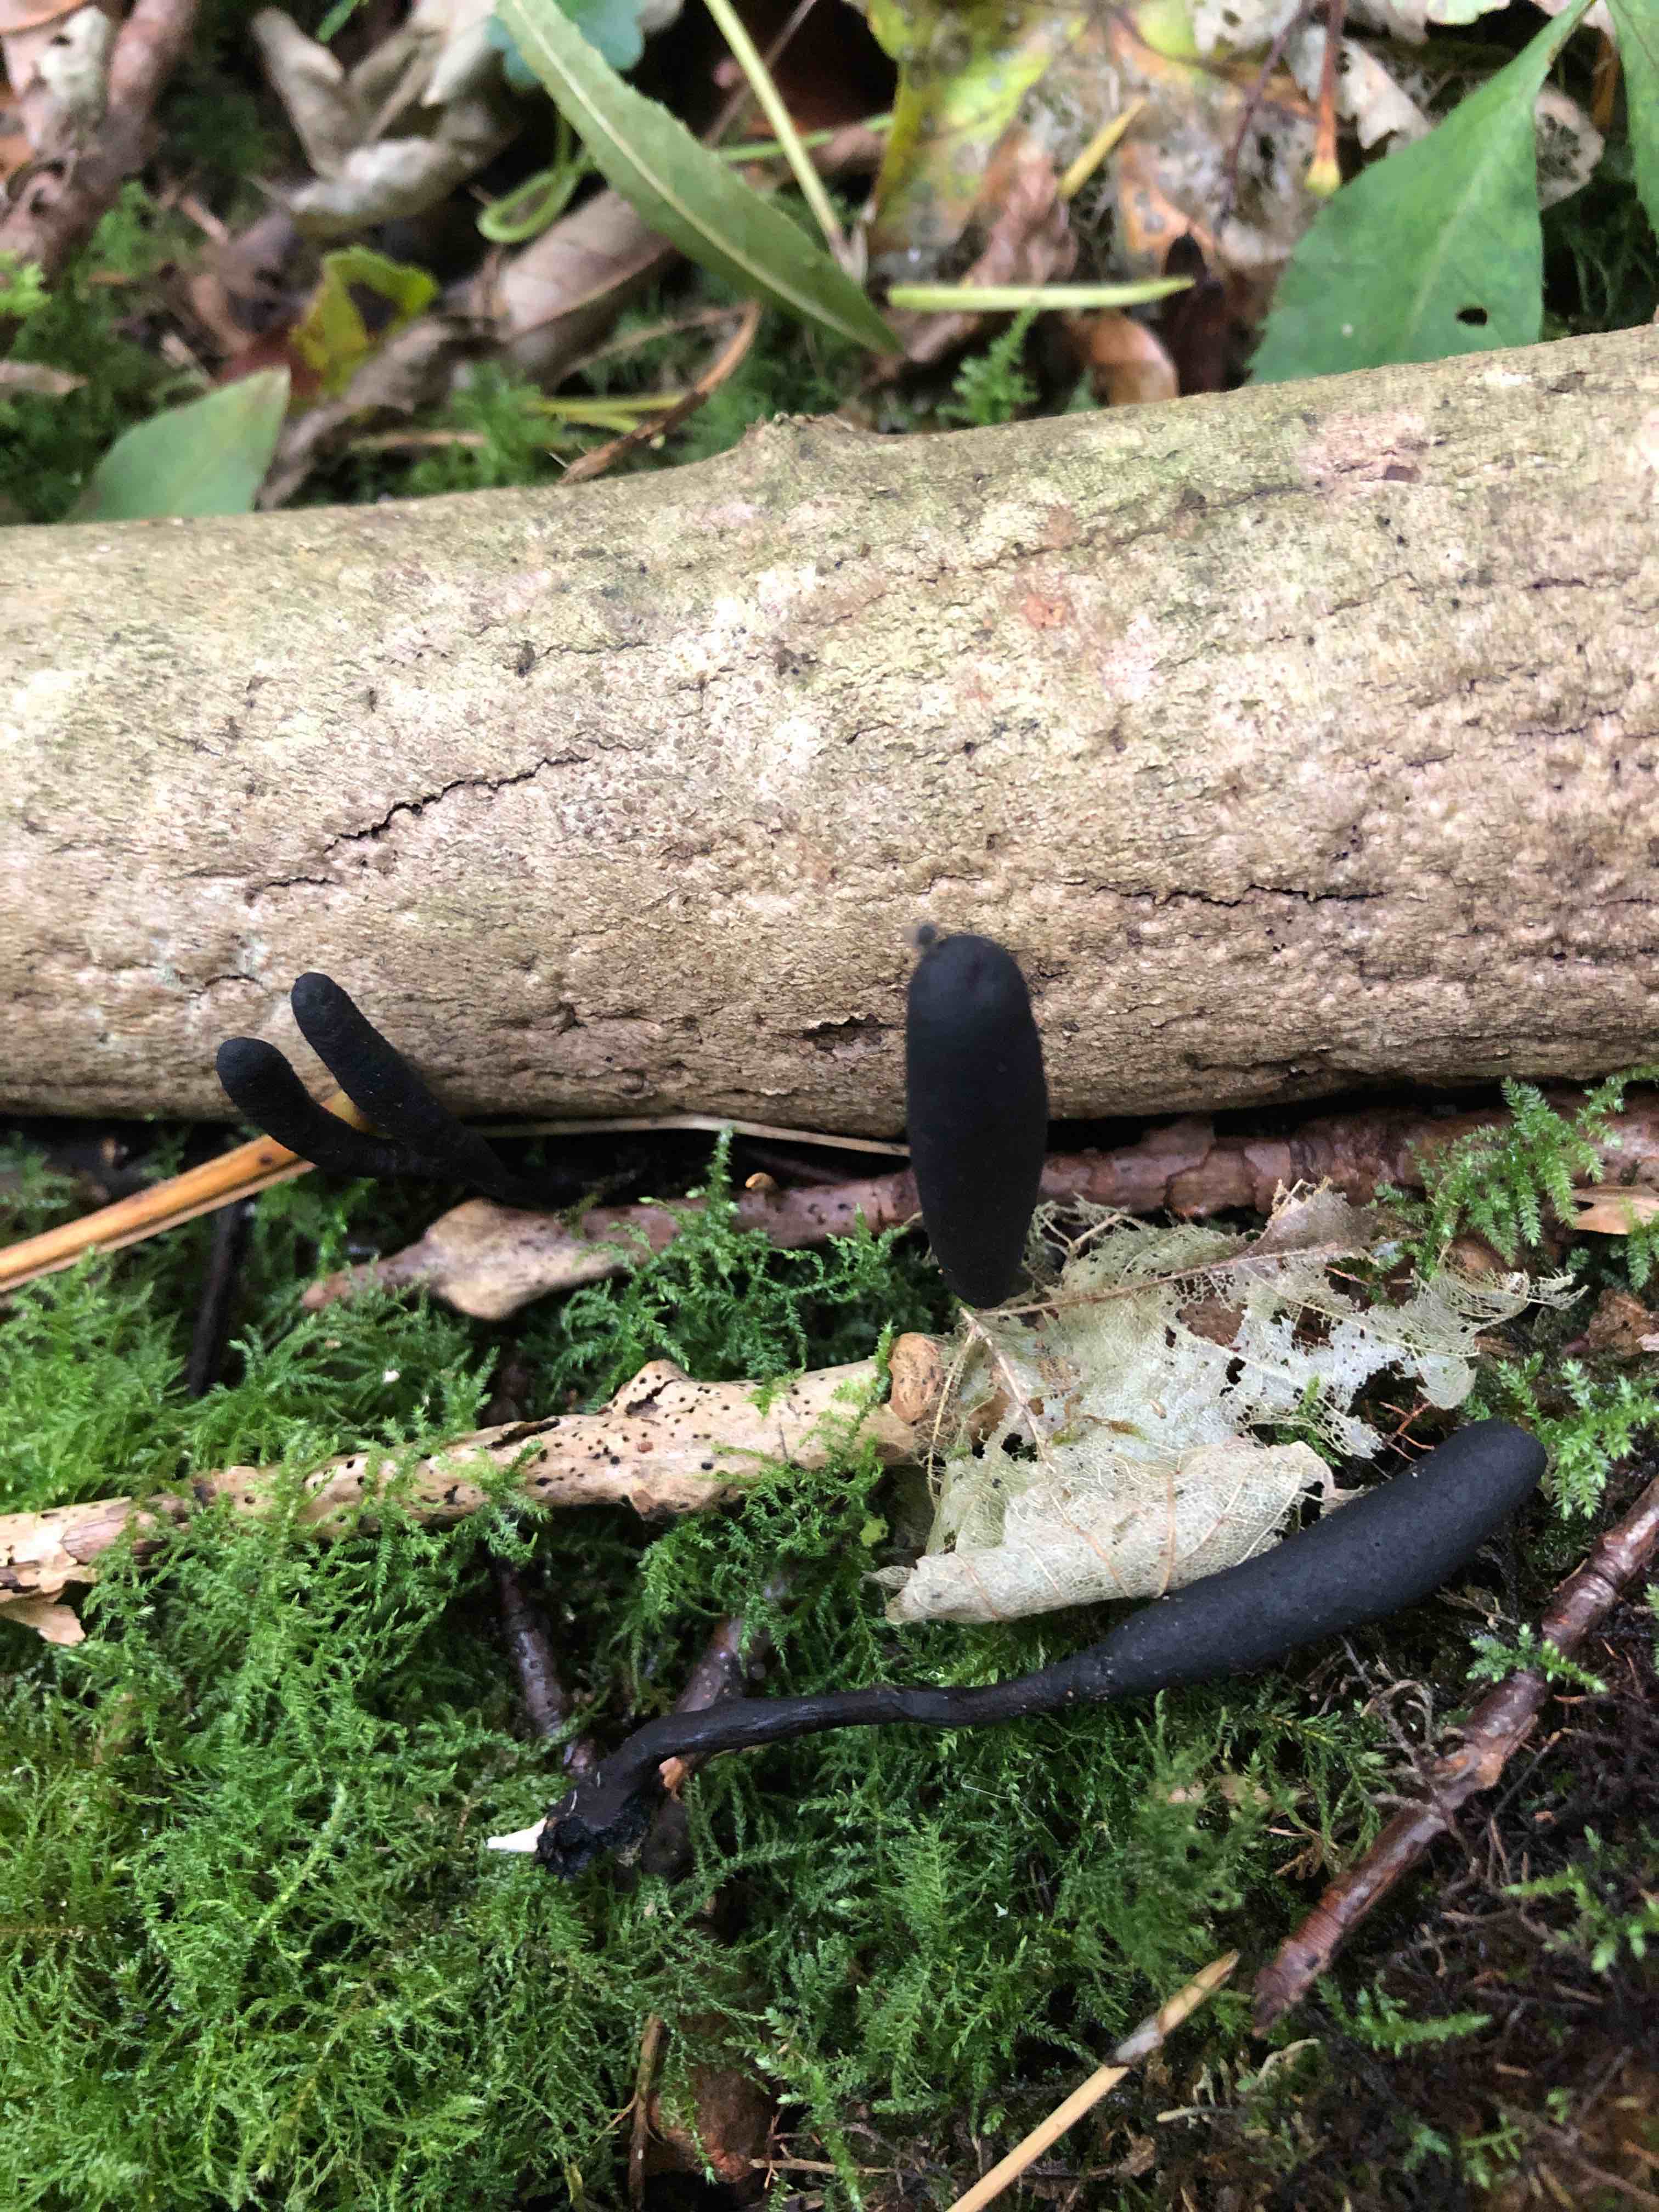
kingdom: Fungi
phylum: Ascomycota
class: Sordariomycetes
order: Xylariales
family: Xylariaceae
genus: Xylaria
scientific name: Xylaria longipes
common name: slank stødsvamp
